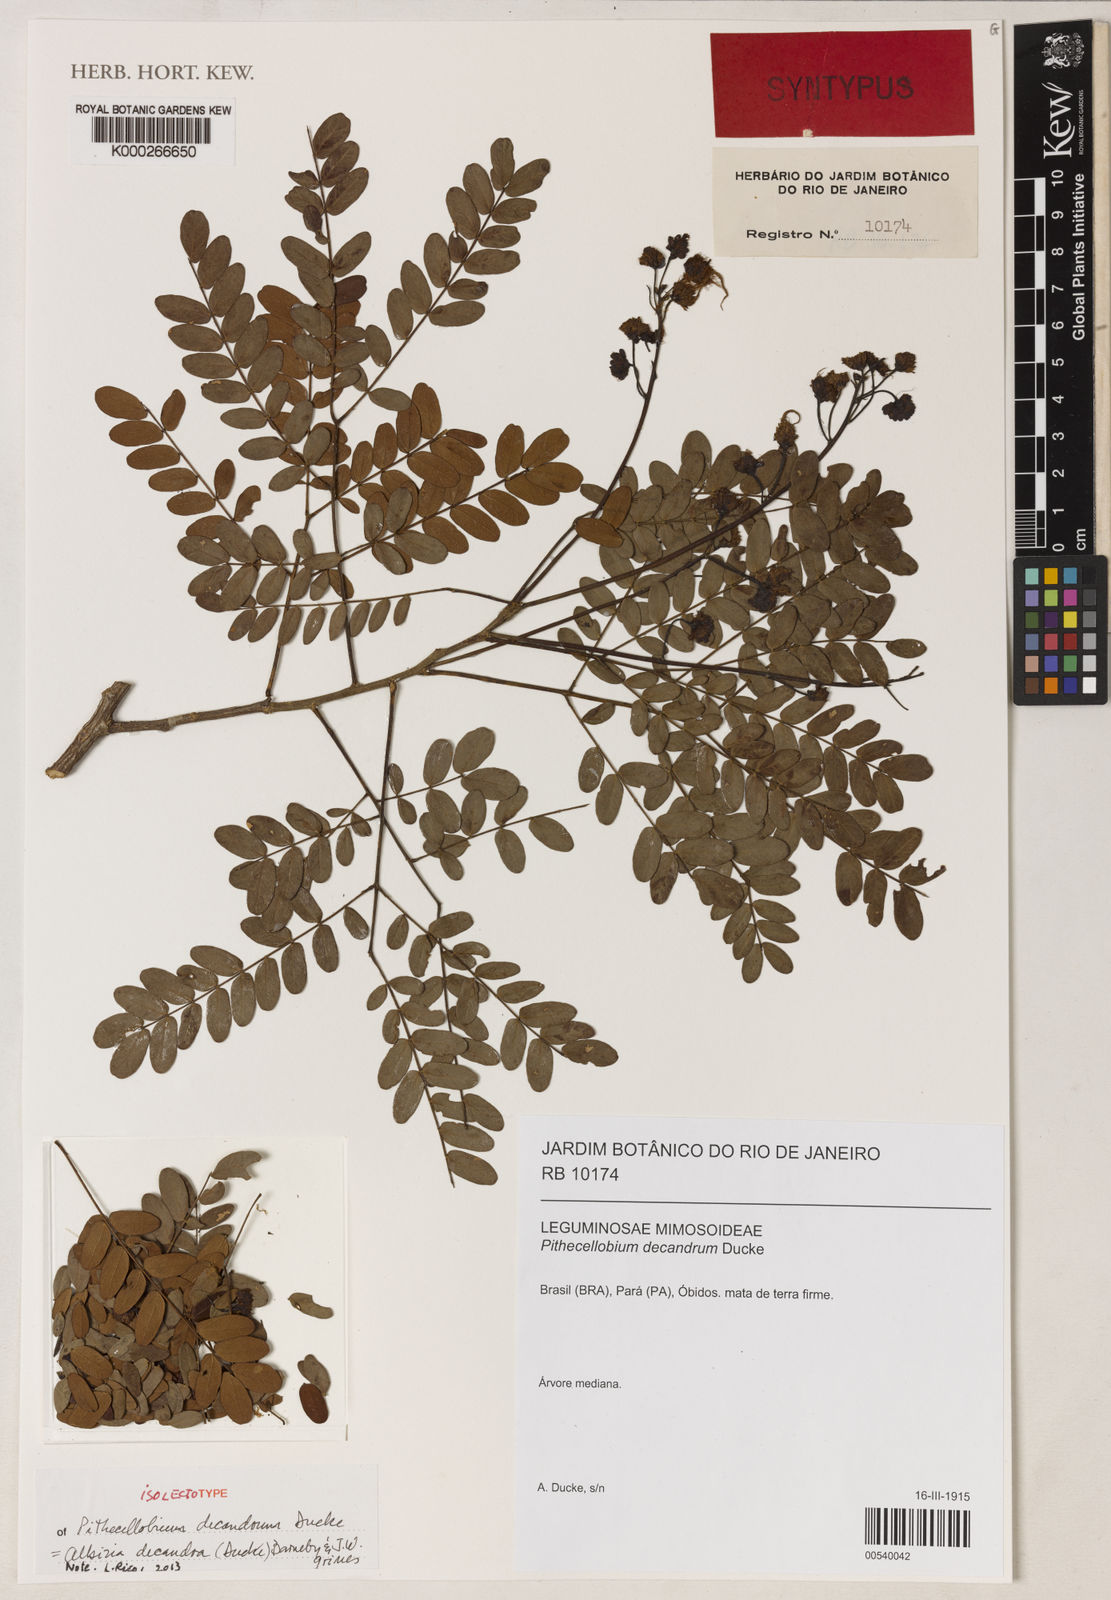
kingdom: Plantae
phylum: Tracheophyta
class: Magnoliopsida
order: Fabales
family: Fabaceae
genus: Albizia
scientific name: Albizia decandra
